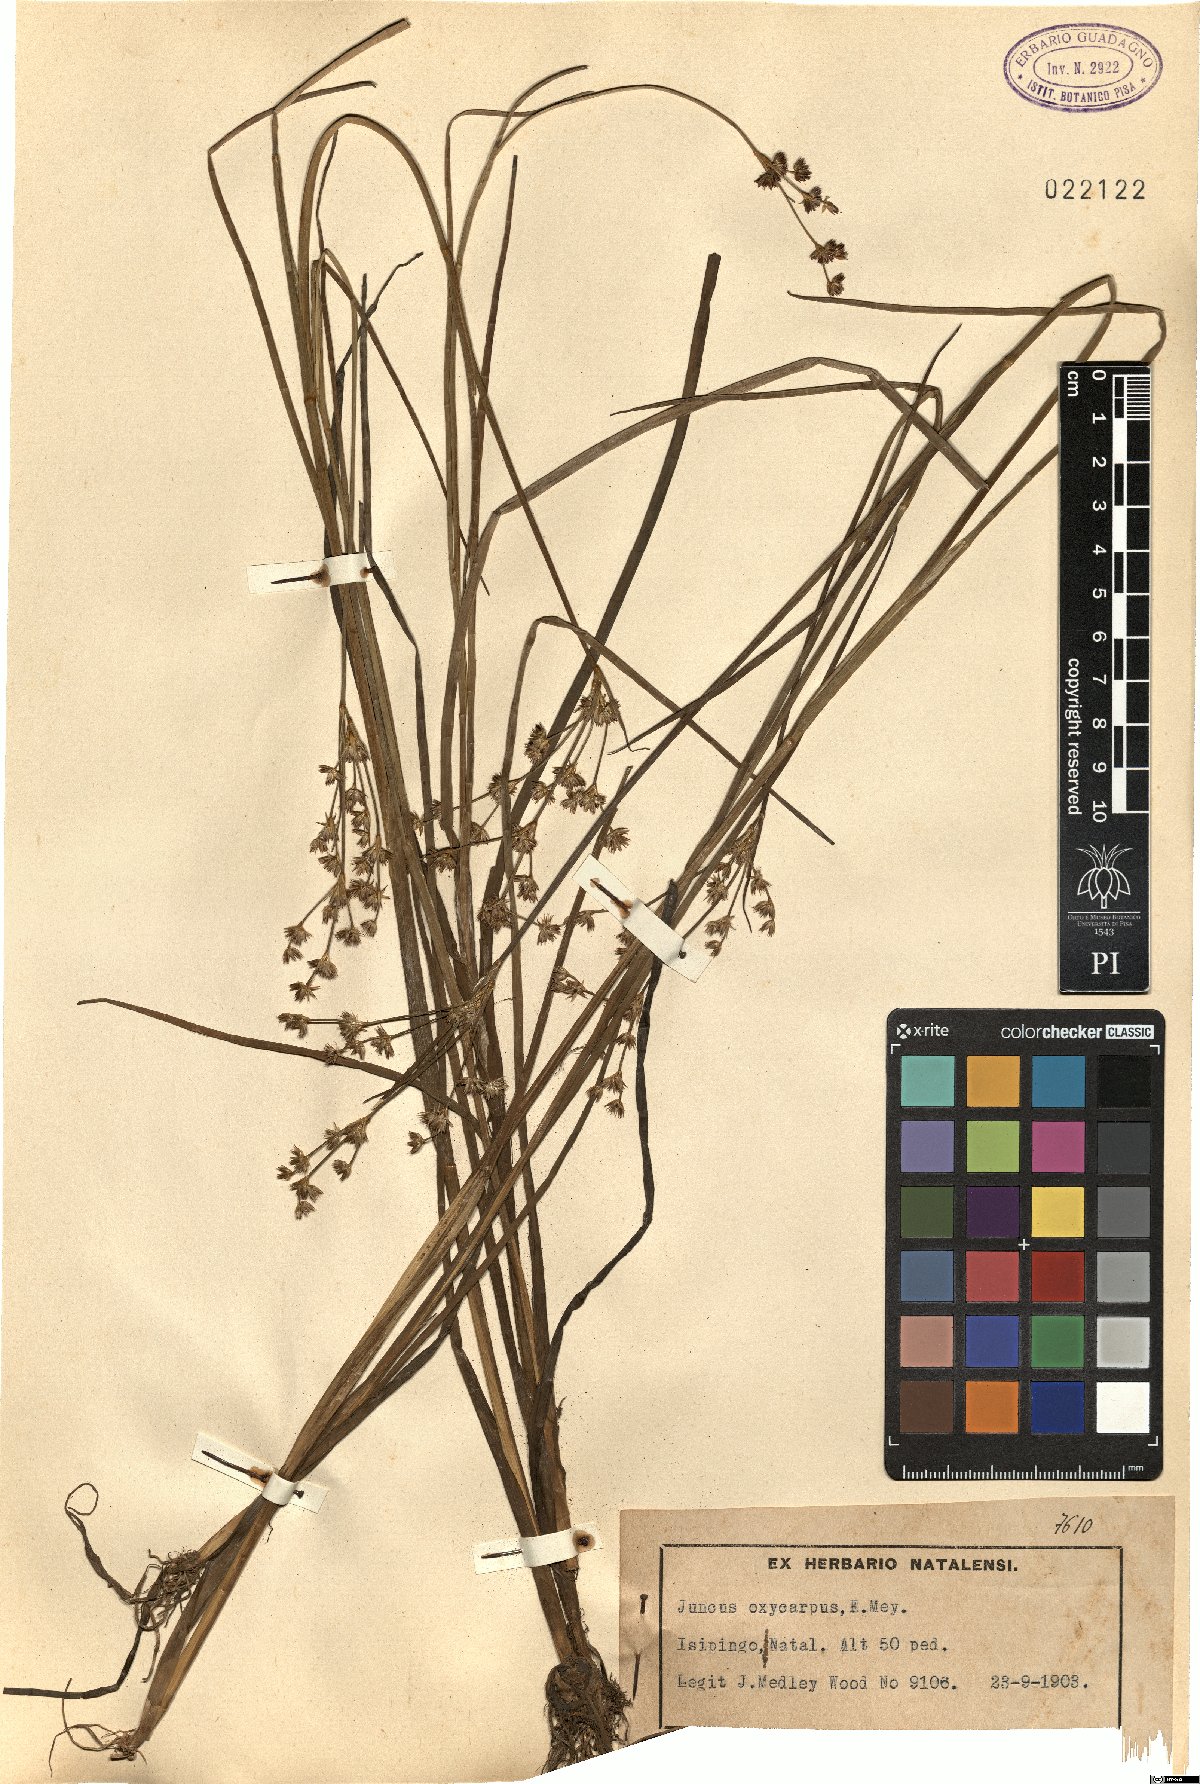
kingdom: Plantae
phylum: Tracheophyta
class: Liliopsida
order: Poales
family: Juncaceae
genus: Juncus
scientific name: Juncus oxycarpus
